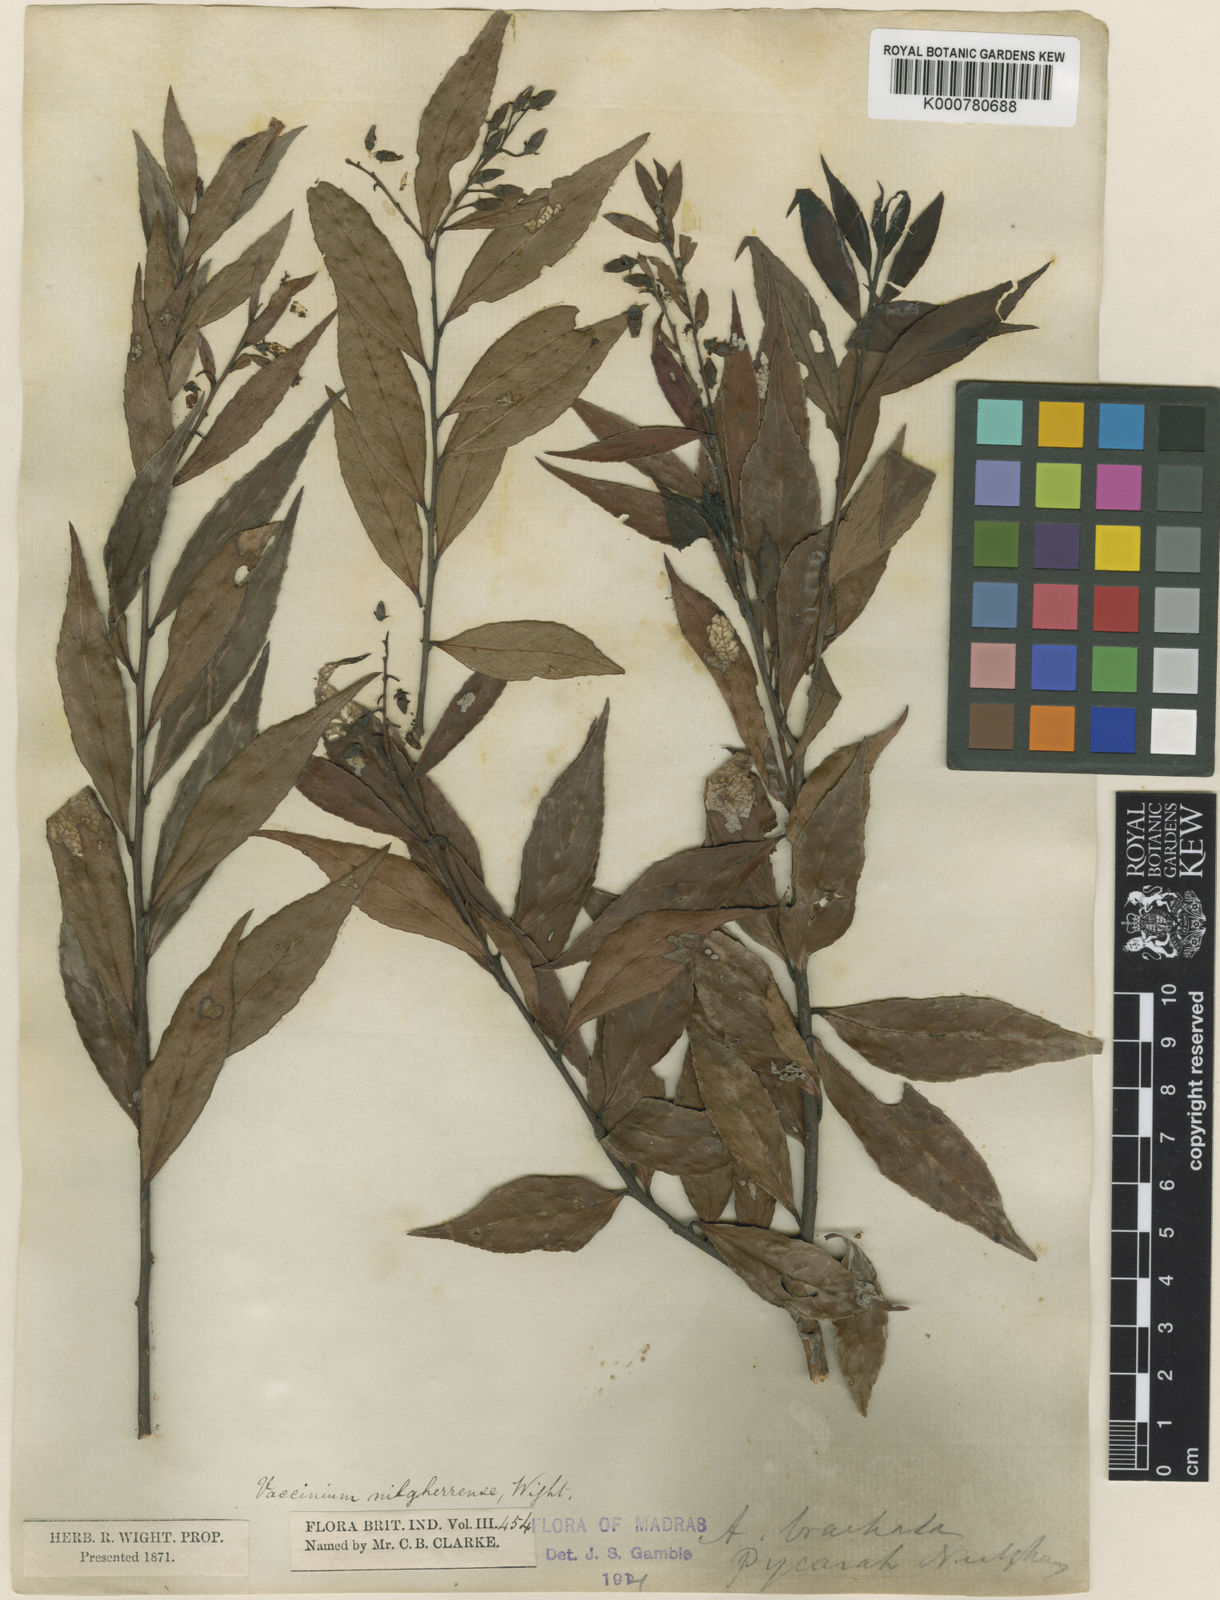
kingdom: Plantae
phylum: Tracheophyta
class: Magnoliopsida
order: Ericales
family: Ericaceae
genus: Vaccinium
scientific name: Vaccinium neilgherrense
